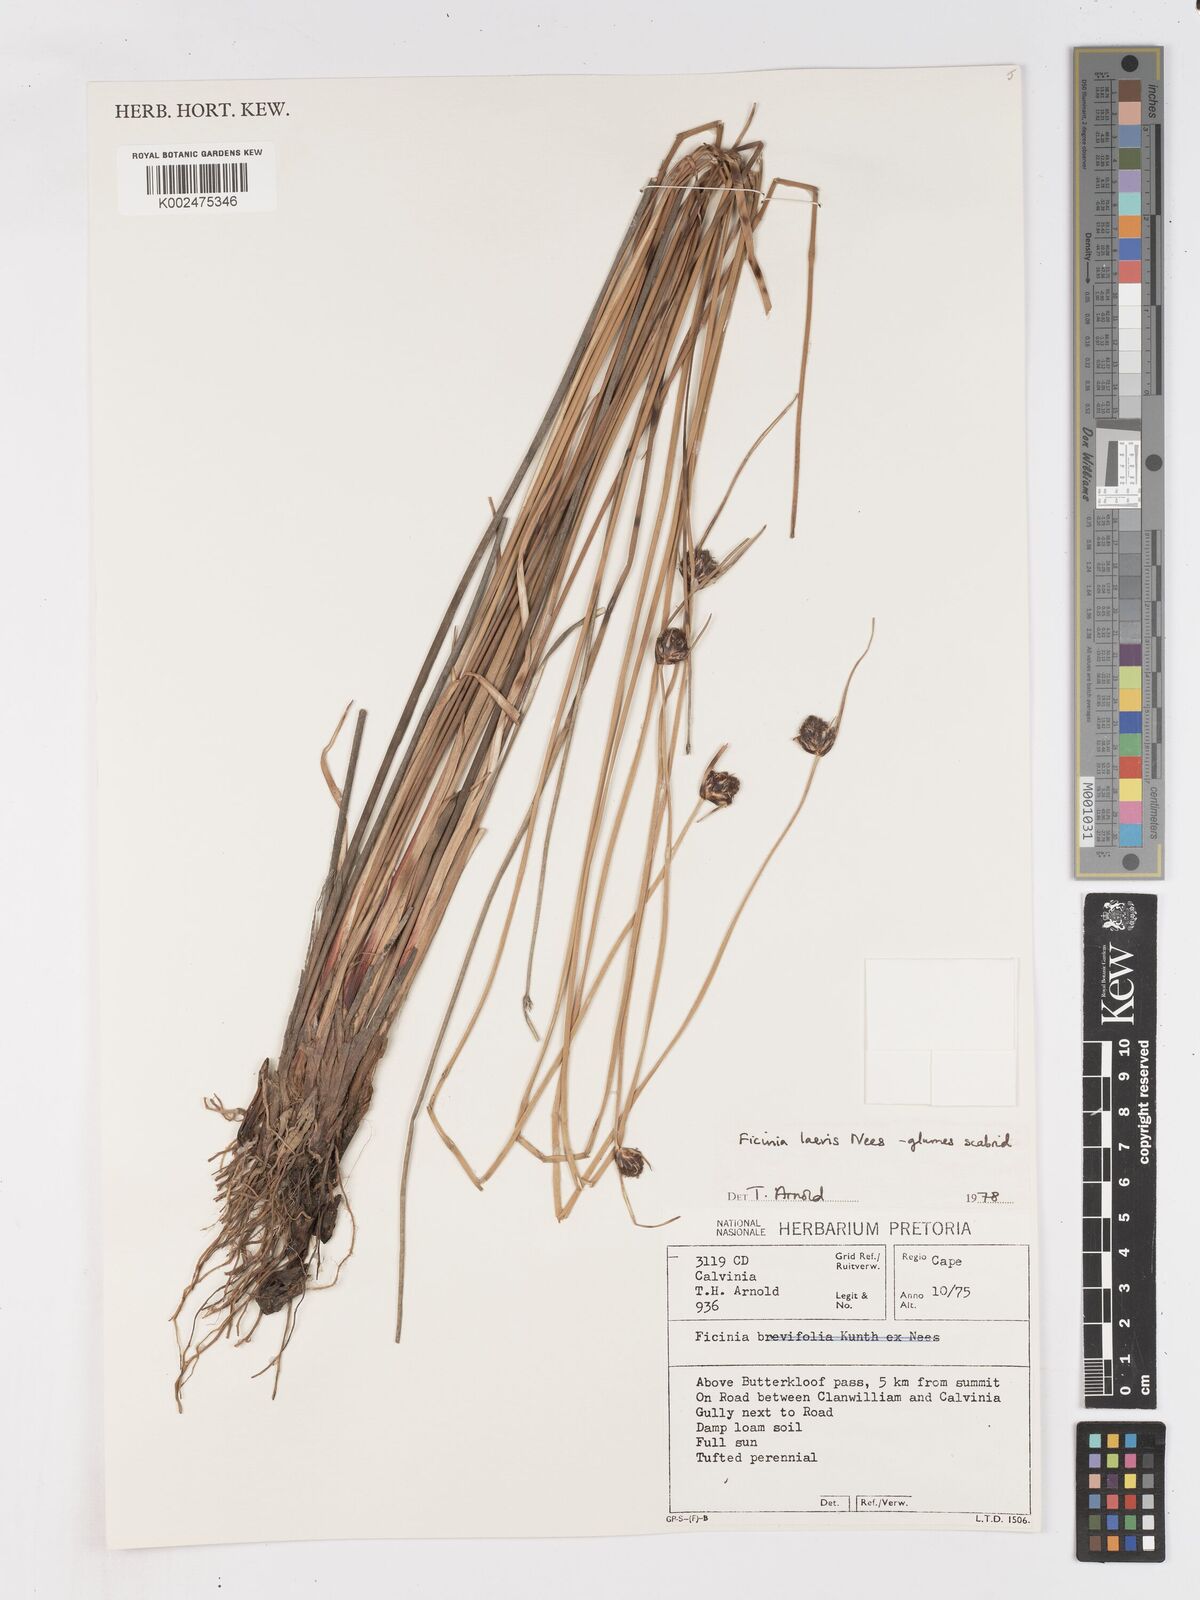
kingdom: Plantae
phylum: Tracheophyta
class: Liliopsida
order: Poales
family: Cyperaceae
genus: Ficinia
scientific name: Ficinia laevis
